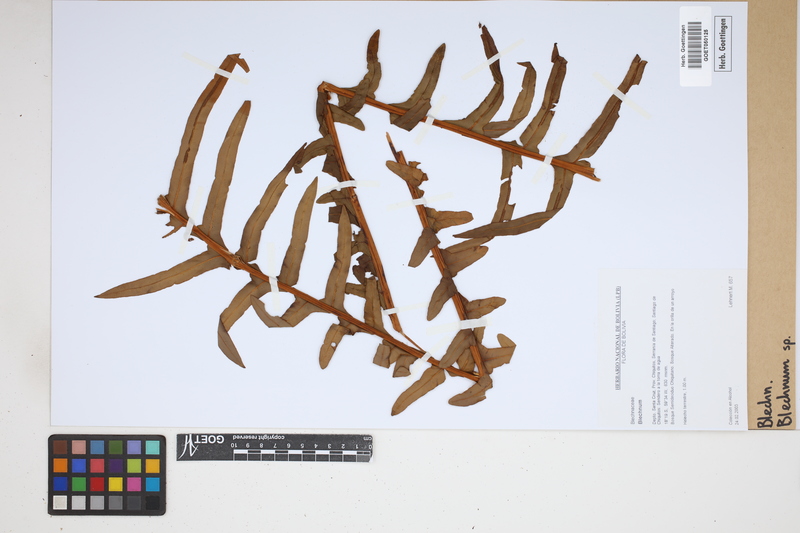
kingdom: Plantae
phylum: Tracheophyta
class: Polypodiopsida
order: Polypodiales
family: Blechnaceae
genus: Blechnum
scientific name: Blechnum
